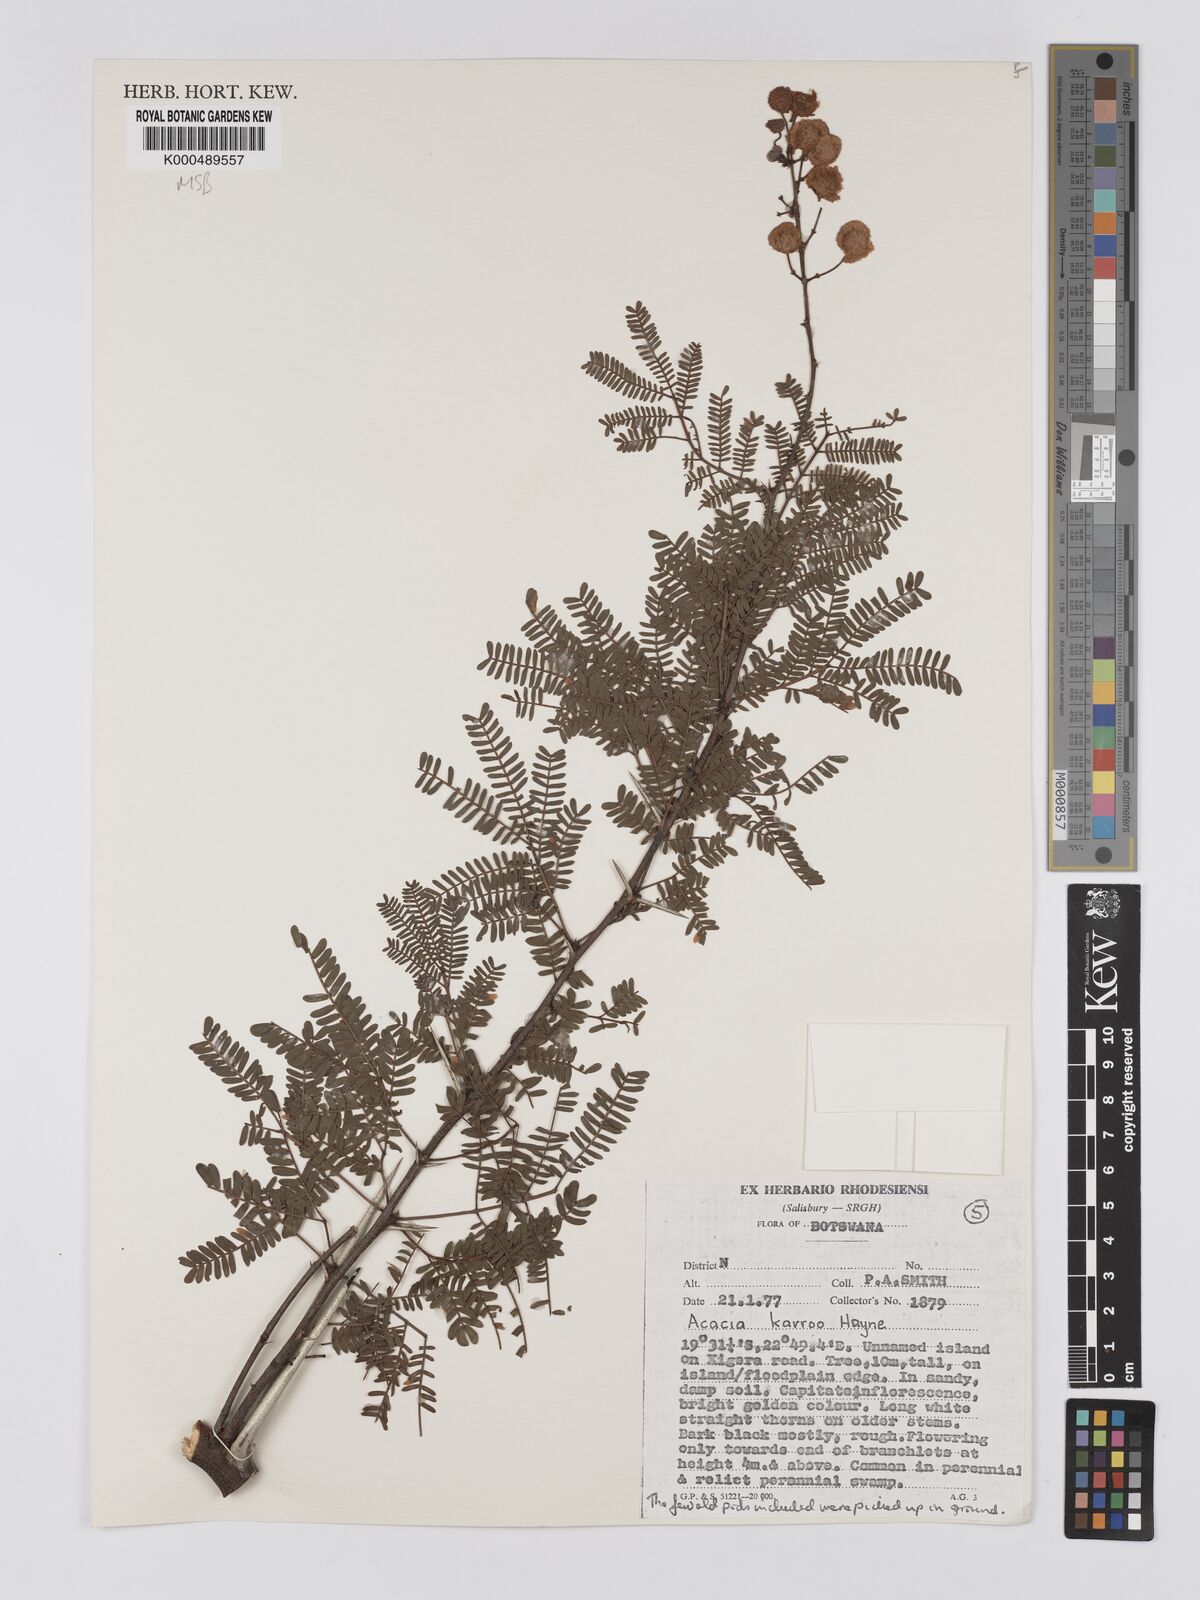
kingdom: Plantae
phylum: Tracheophyta
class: Magnoliopsida
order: Fabales
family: Fabaceae
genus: Vachellia
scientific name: Vachellia karroo
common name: Sweet thorn
